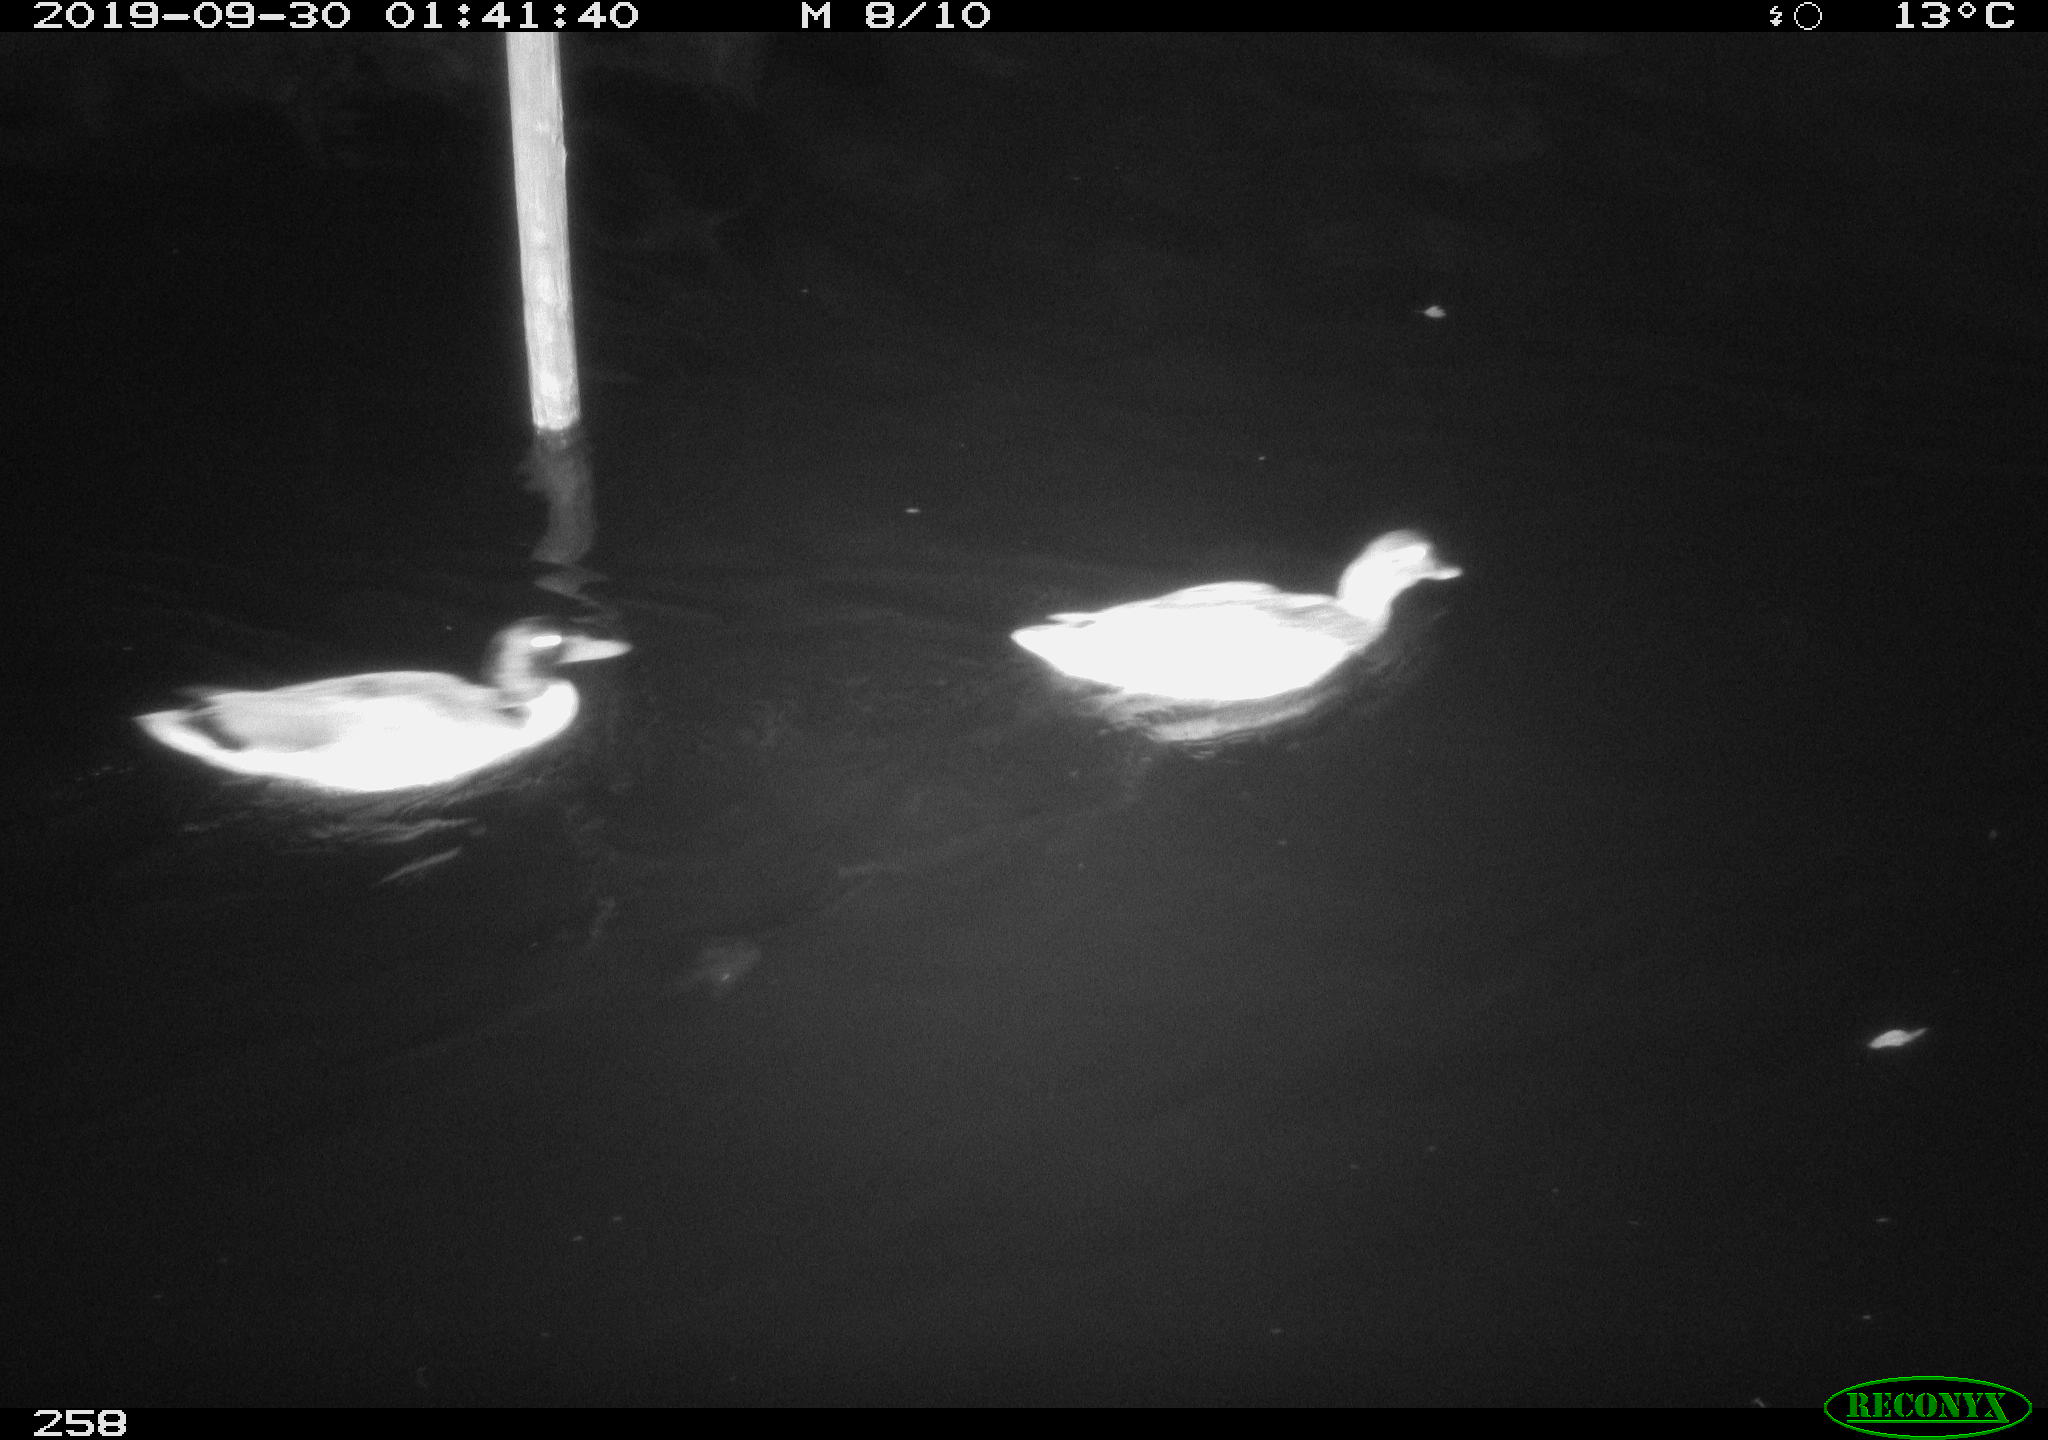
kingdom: Animalia
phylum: Chordata
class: Aves
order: Anseriformes
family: Anatidae
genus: Anas
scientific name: Anas platyrhynchos
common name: Mallard
